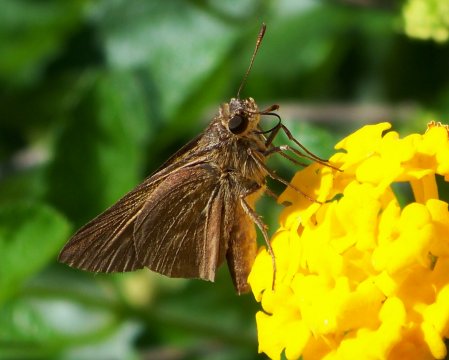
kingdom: Animalia
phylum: Arthropoda
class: Insecta
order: Lepidoptera
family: Hesperiidae
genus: Euphyes
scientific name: Euphyes pilatka
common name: Palatka Skipper
